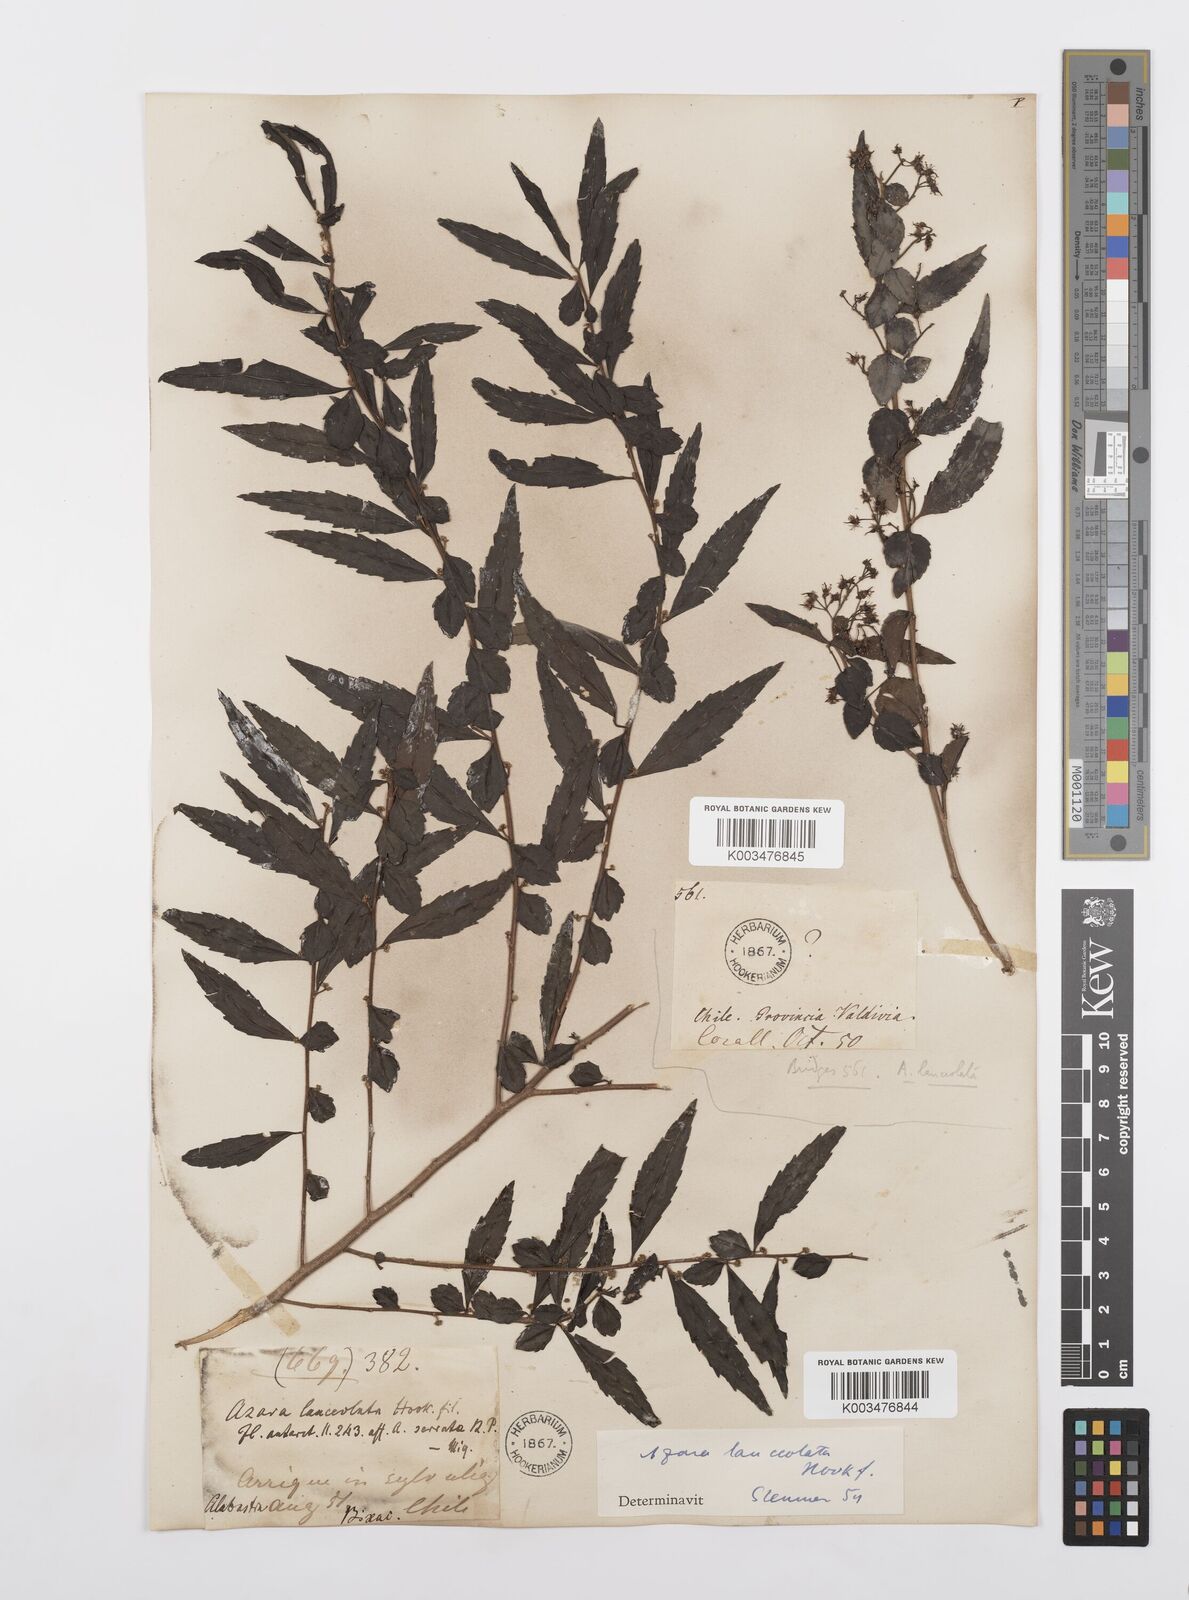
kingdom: Plantae
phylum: Tracheophyta
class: Magnoliopsida
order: Malpighiales
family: Salicaceae
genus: Azara
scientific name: Azara lanceolata
